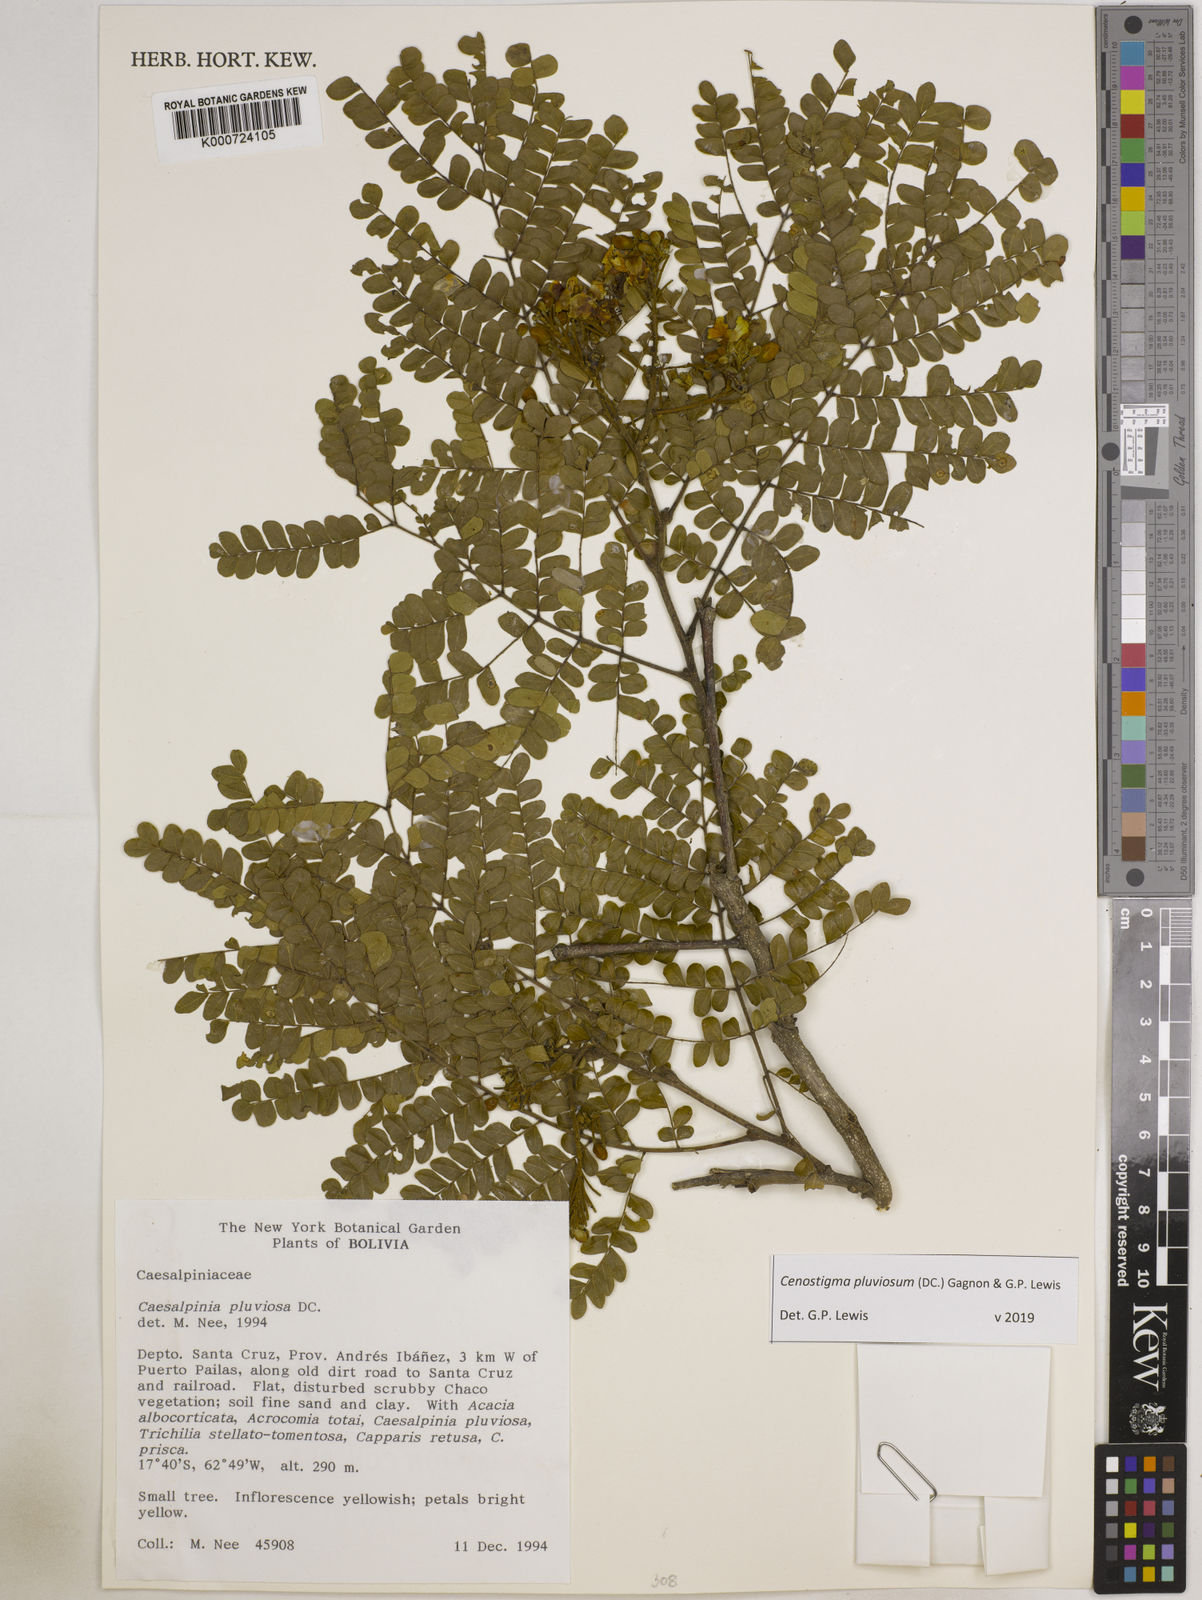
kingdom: Plantae
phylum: Tracheophyta
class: Magnoliopsida
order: Fabales
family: Fabaceae
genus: Cenostigma
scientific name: Cenostigma pluviosum
